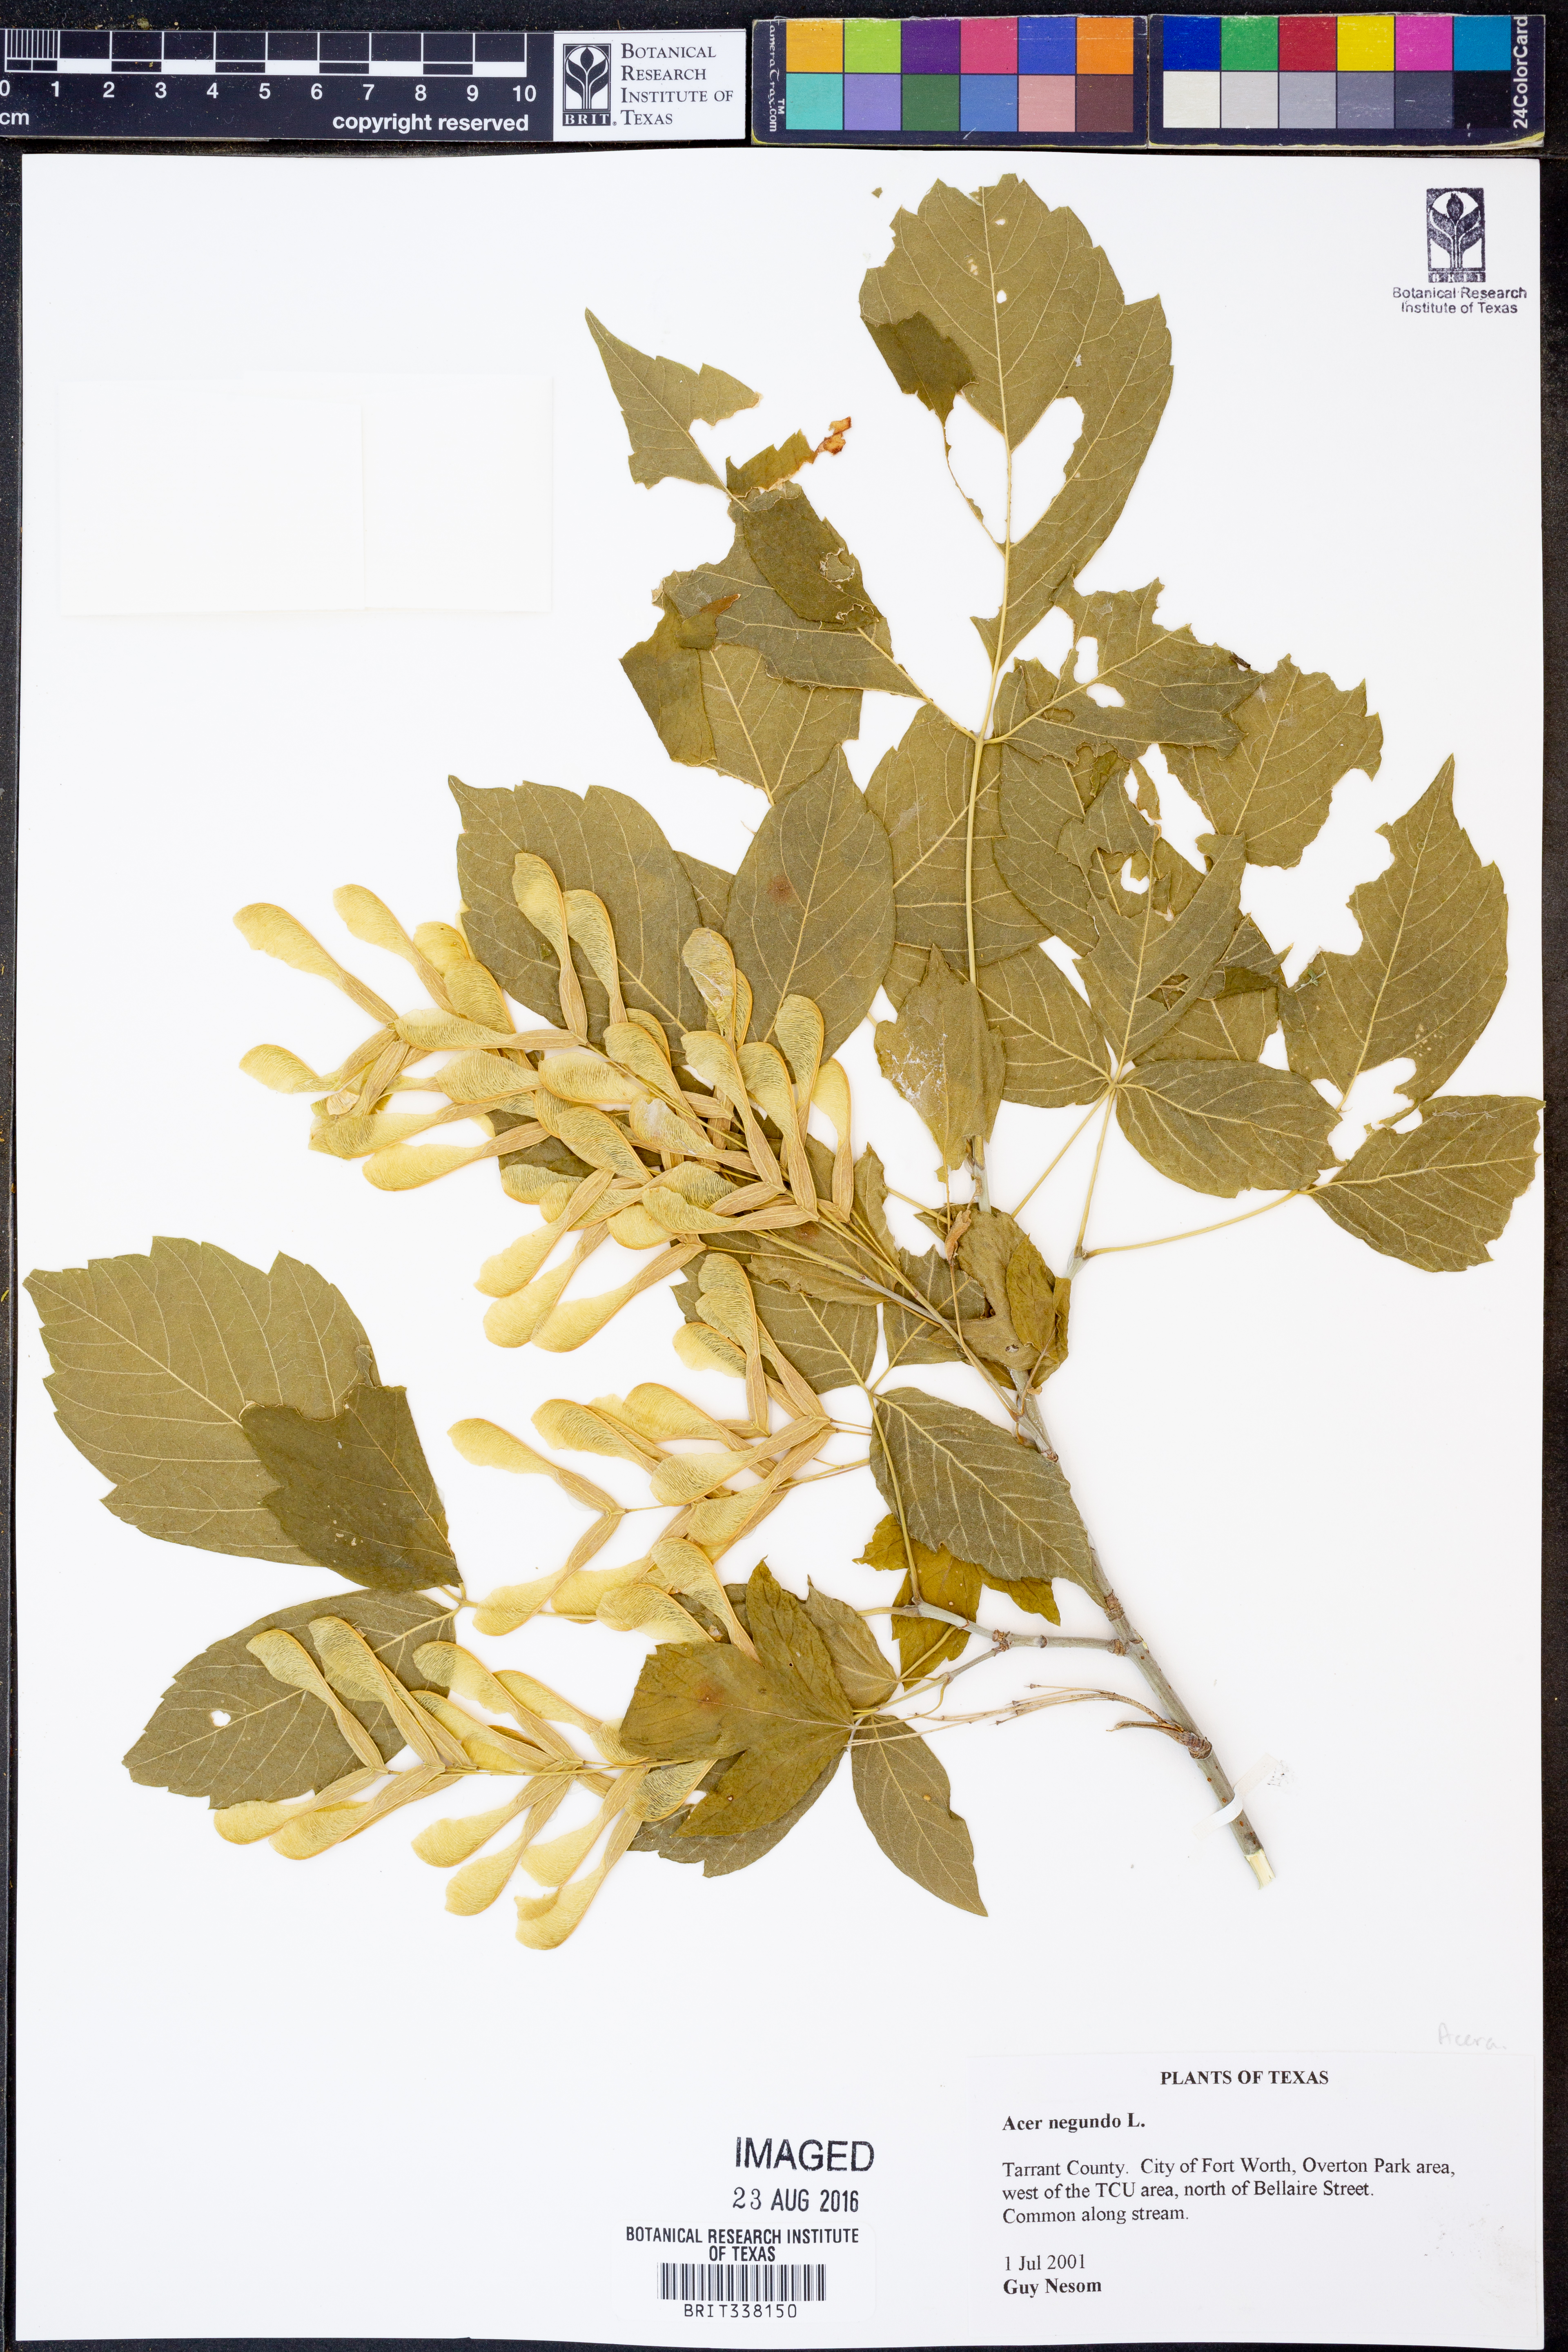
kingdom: Plantae
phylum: Tracheophyta
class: Magnoliopsida
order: Sapindales
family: Sapindaceae
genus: Acer
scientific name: Acer negundo
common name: Ashleaf maple
